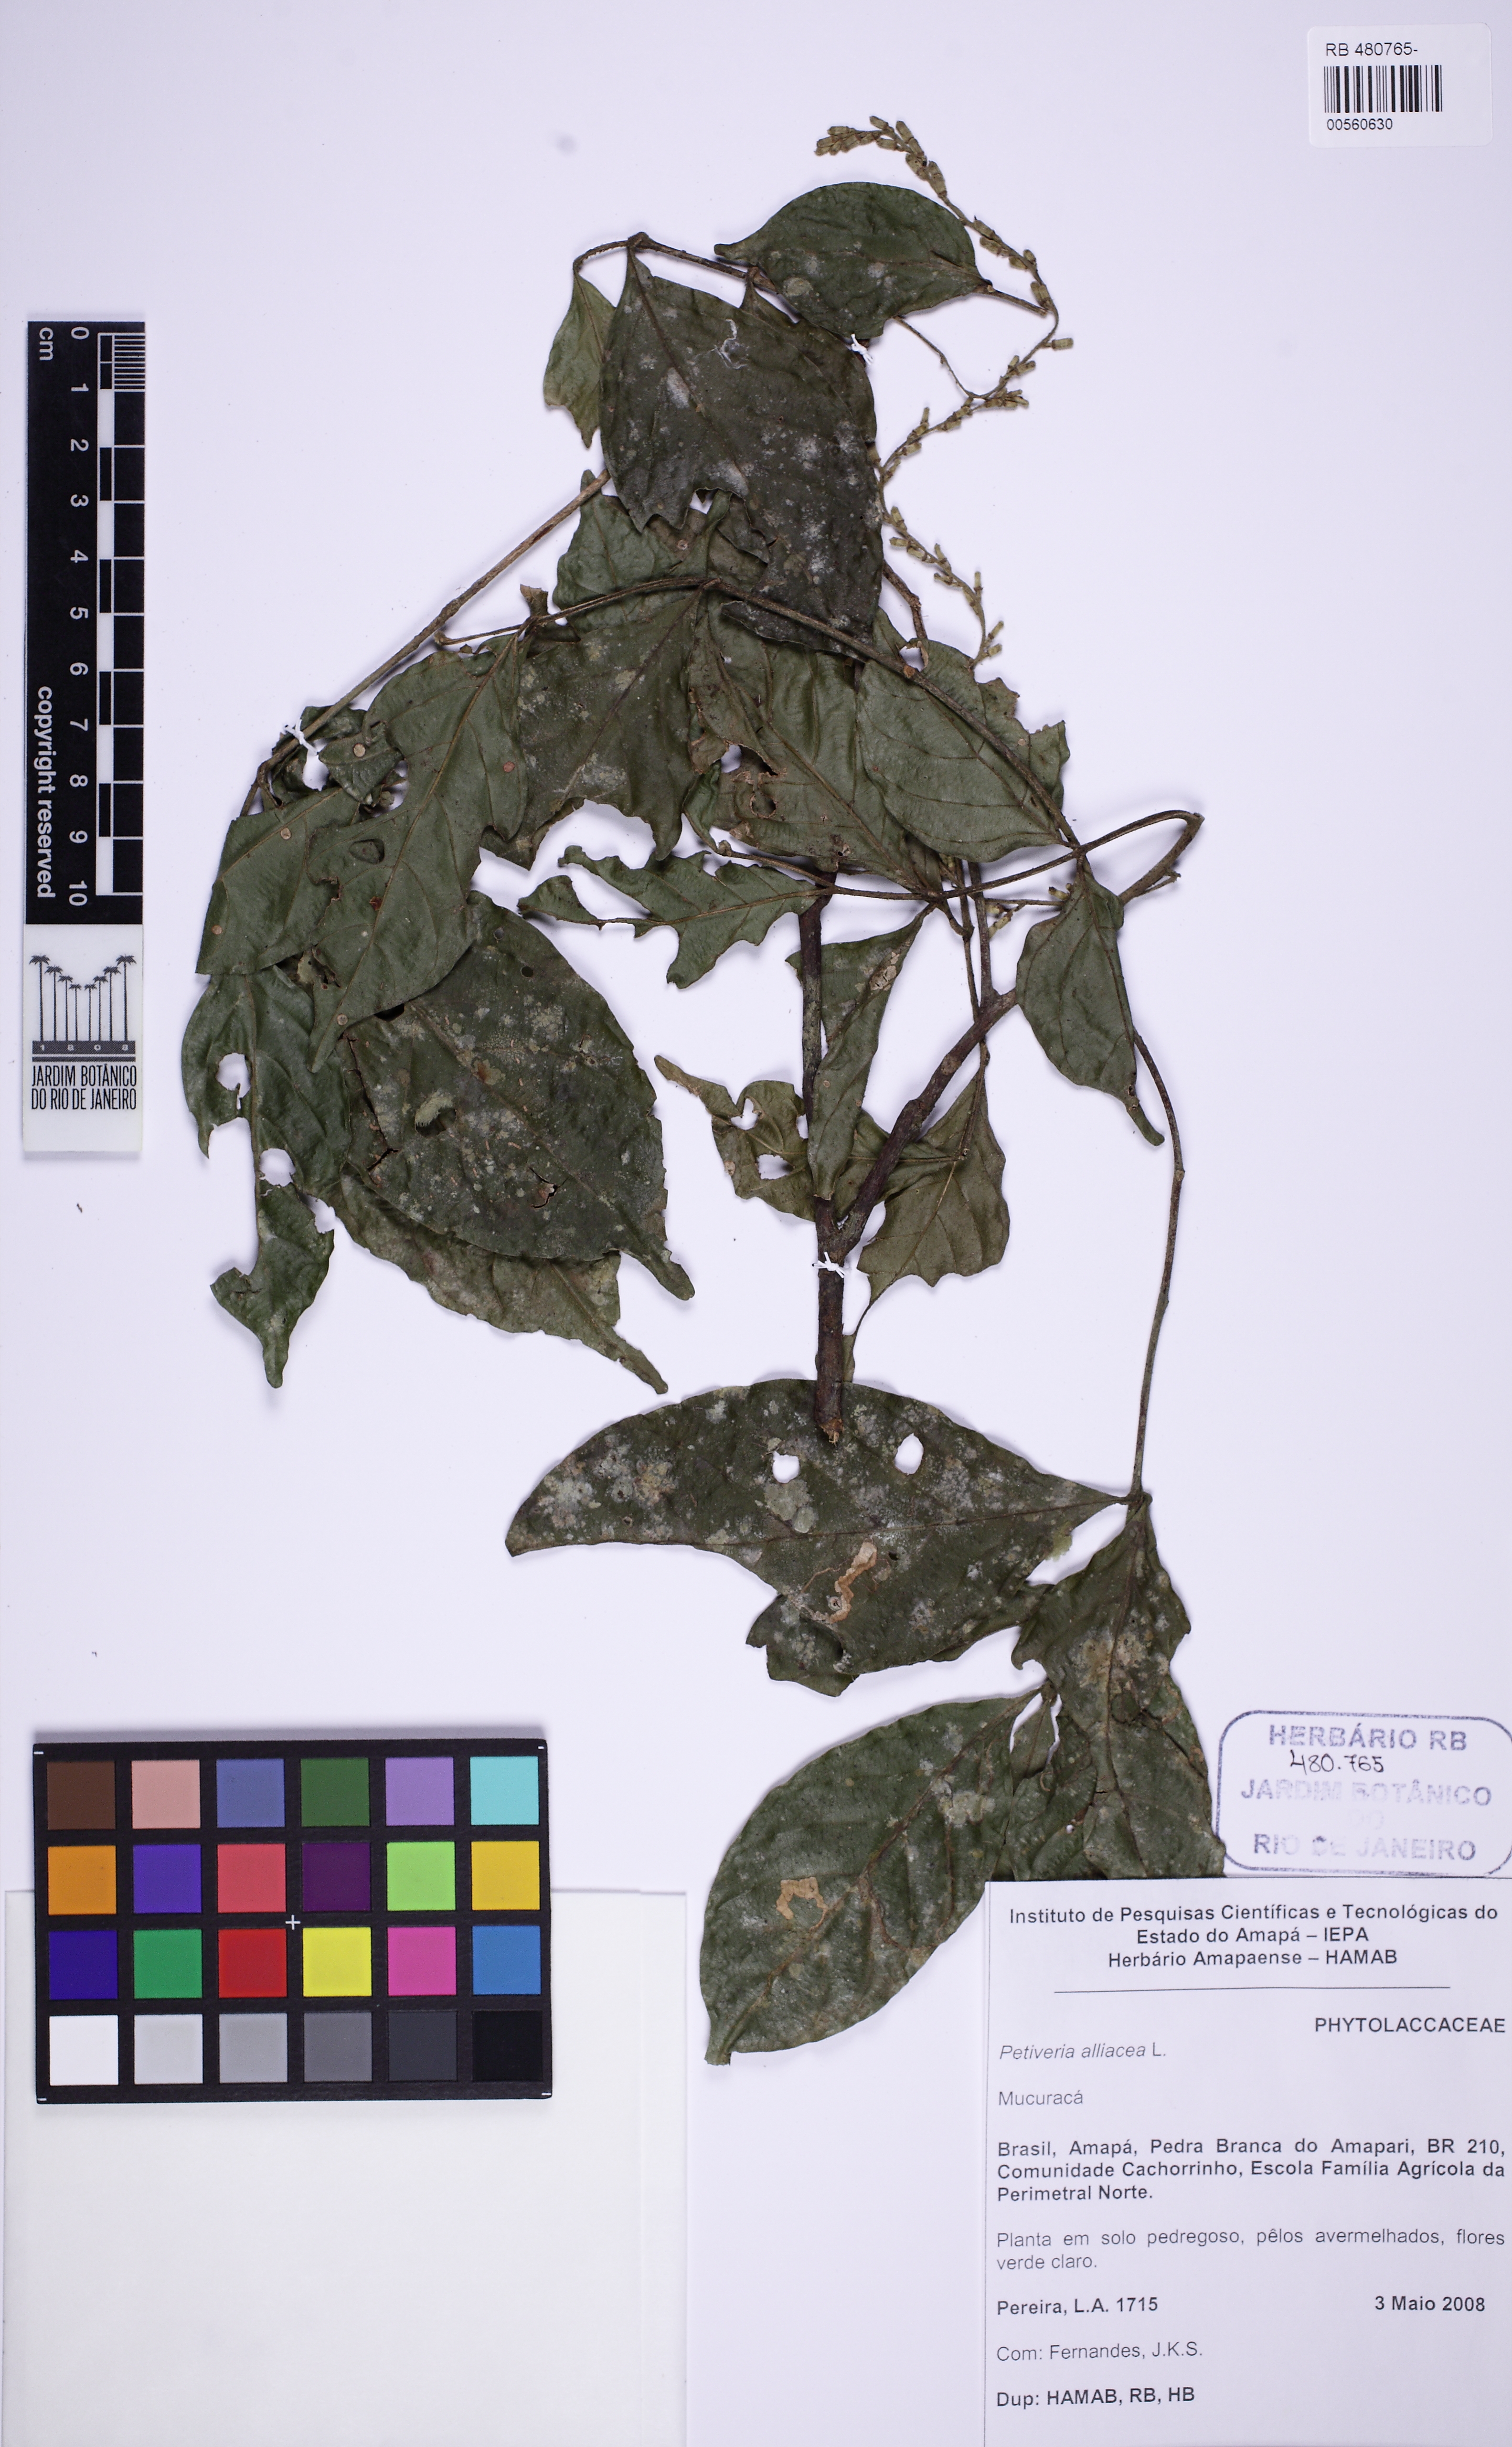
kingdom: Plantae
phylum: Tracheophyta
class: Magnoliopsida
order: Caryophyllales
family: Phytolaccaceae
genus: Petiveria
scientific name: Petiveria alliacea
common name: Garlicweed
